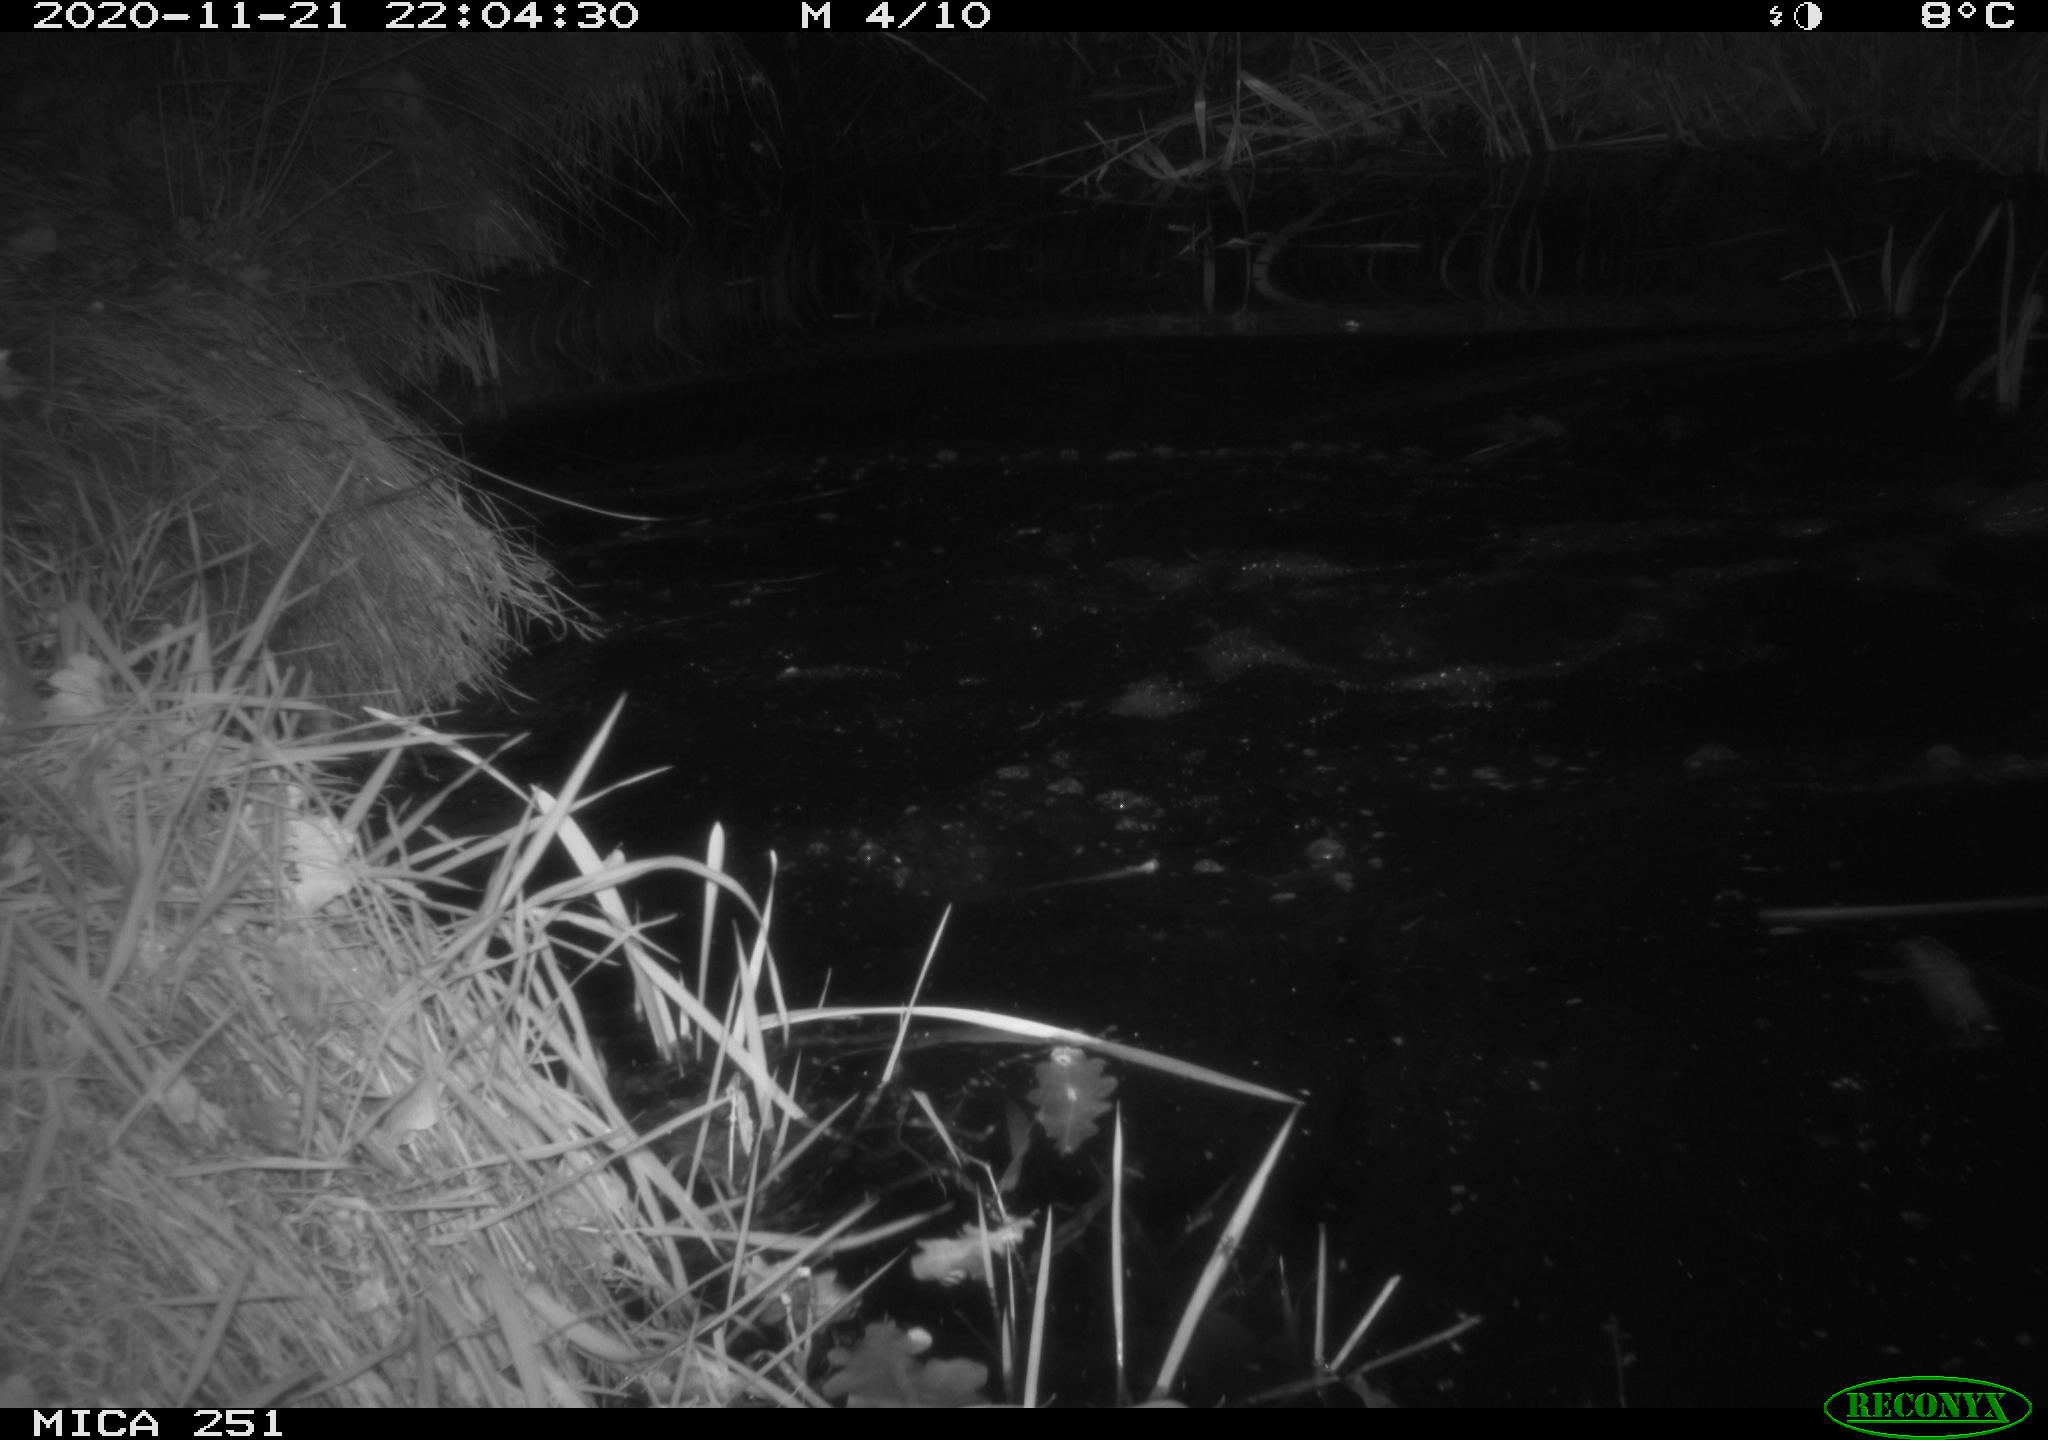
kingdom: Animalia
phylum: Chordata
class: Mammalia
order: Artiodactyla
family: Suidae
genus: Sus
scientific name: Sus scrofa
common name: Wild boar
